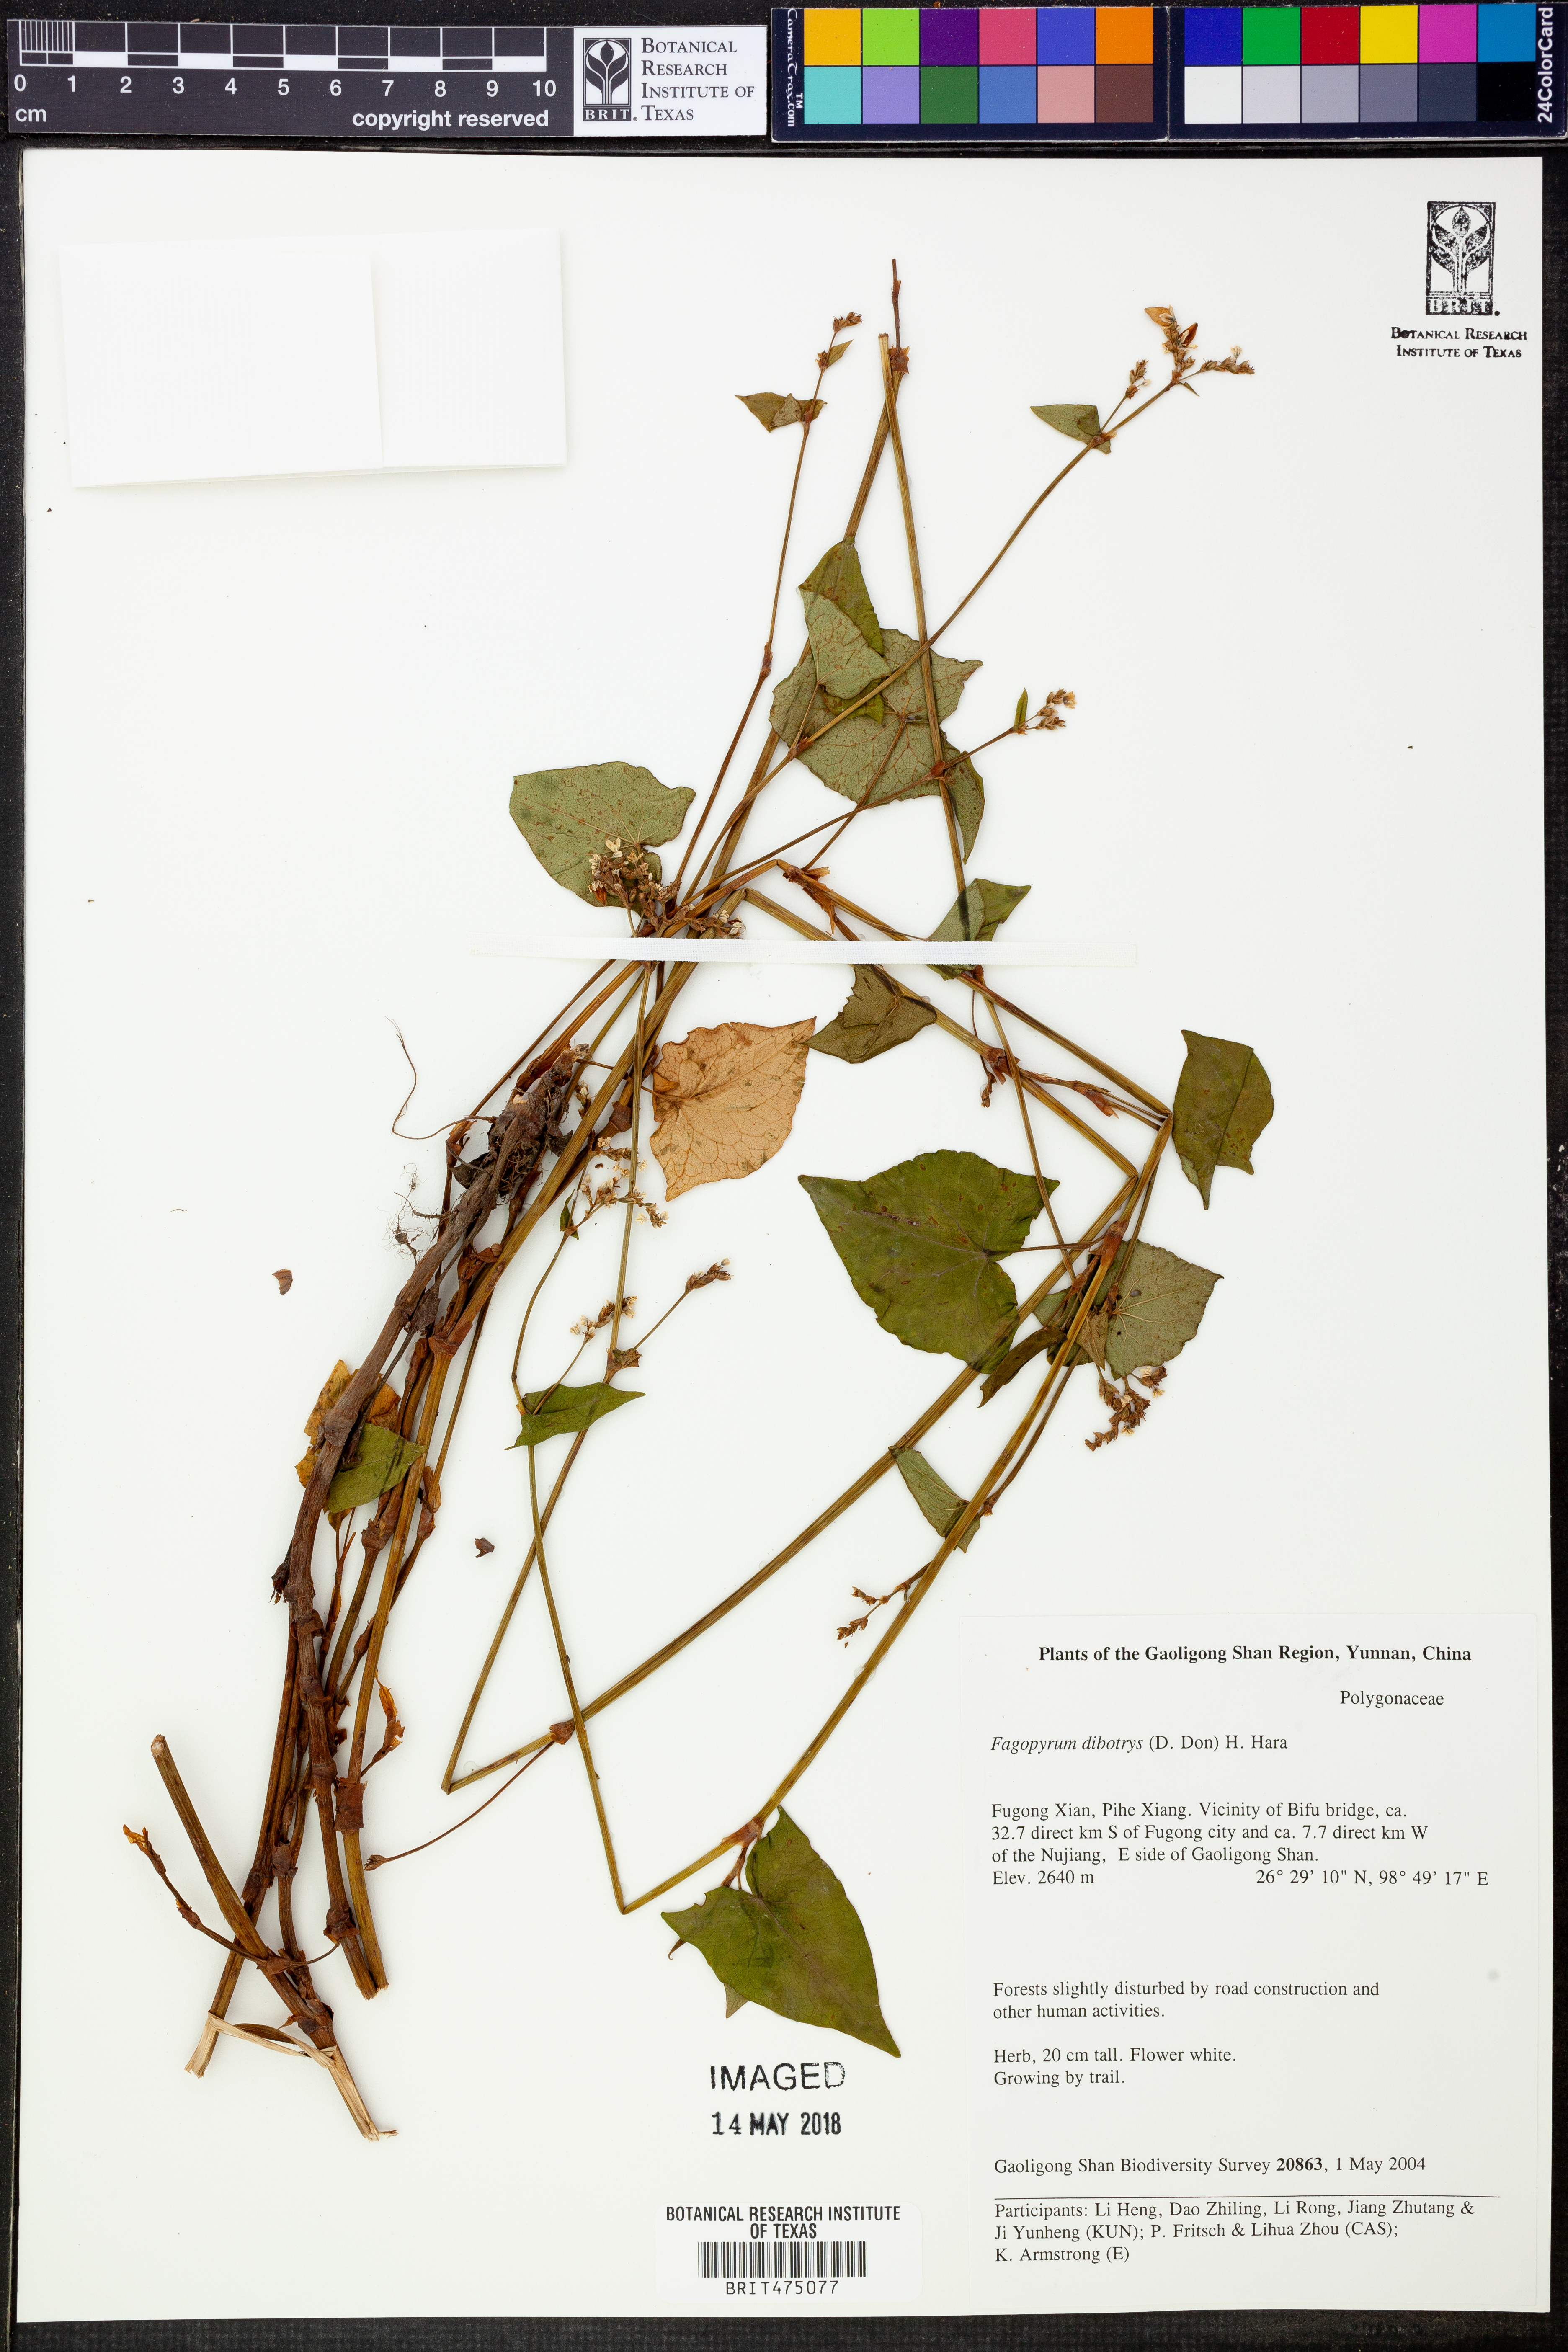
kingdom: Plantae
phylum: Tracheophyta
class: Magnoliopsida
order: Caryophyllales
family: Polygonaceae
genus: Fagopyrum
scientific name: Fagopyrum cymosum
